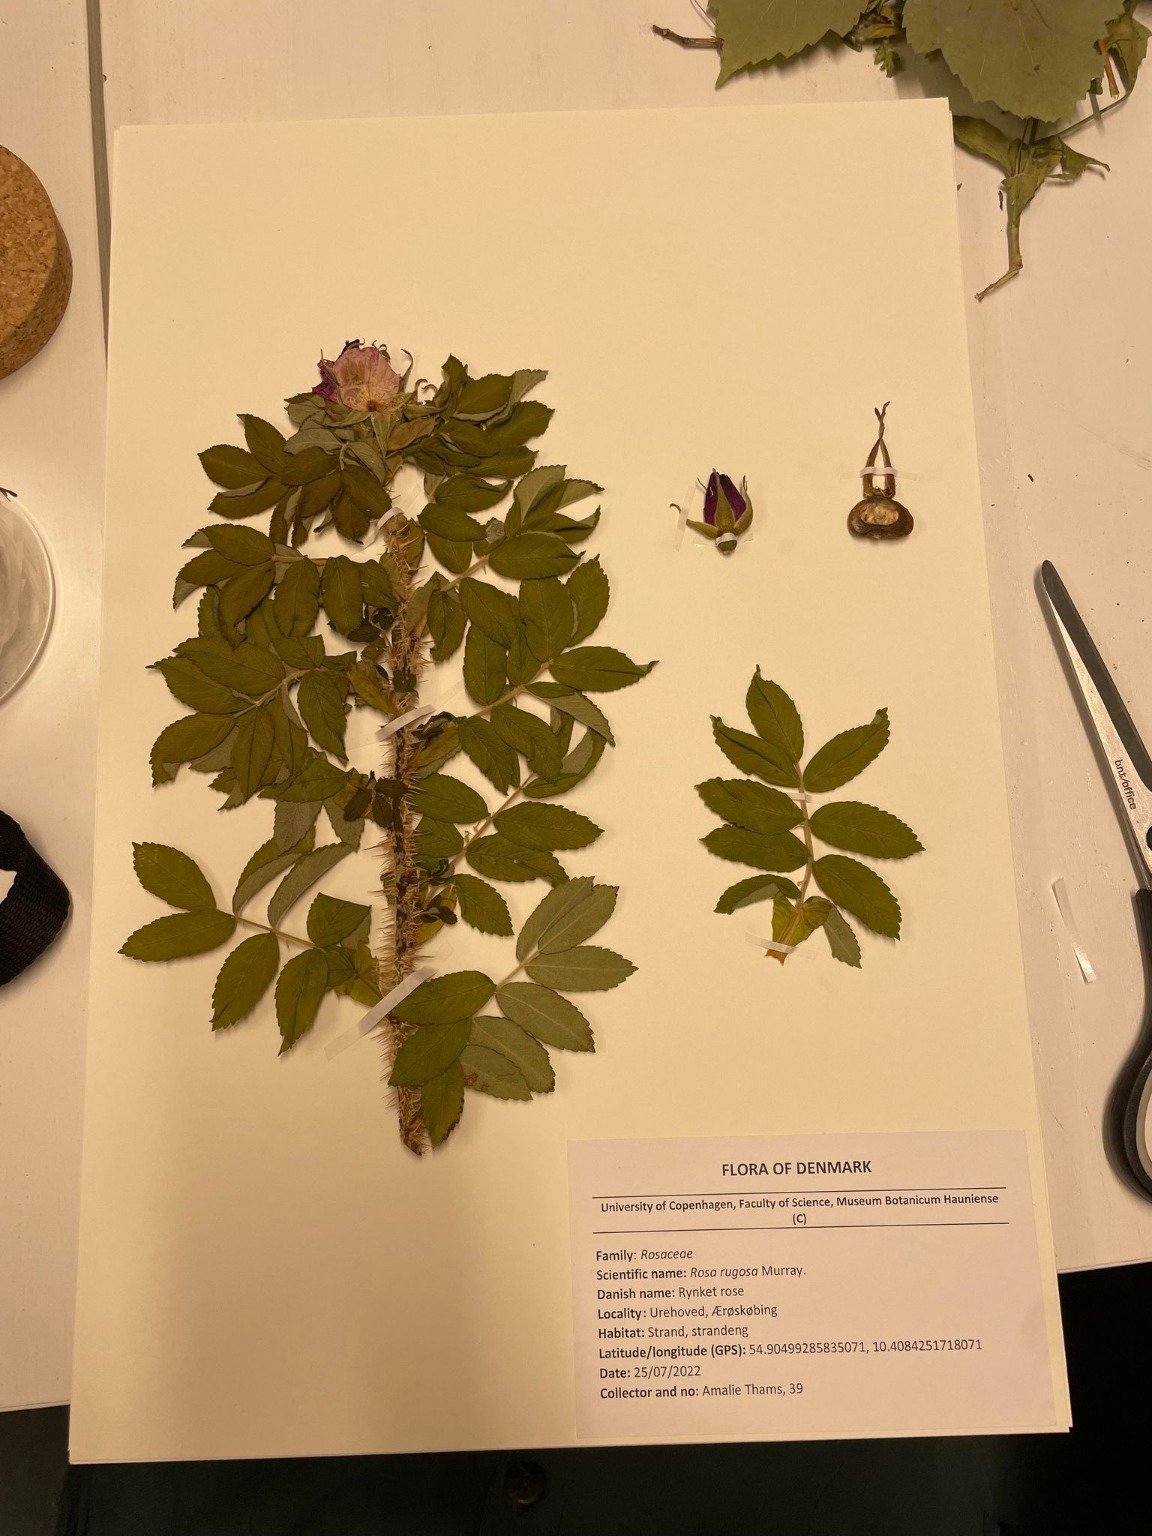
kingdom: Plantae
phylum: Tracheophyta
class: Magnoliopsida
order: Rosales
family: Rosaceae
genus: Rosa
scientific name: Rosa rugosa
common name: Rynket rose
